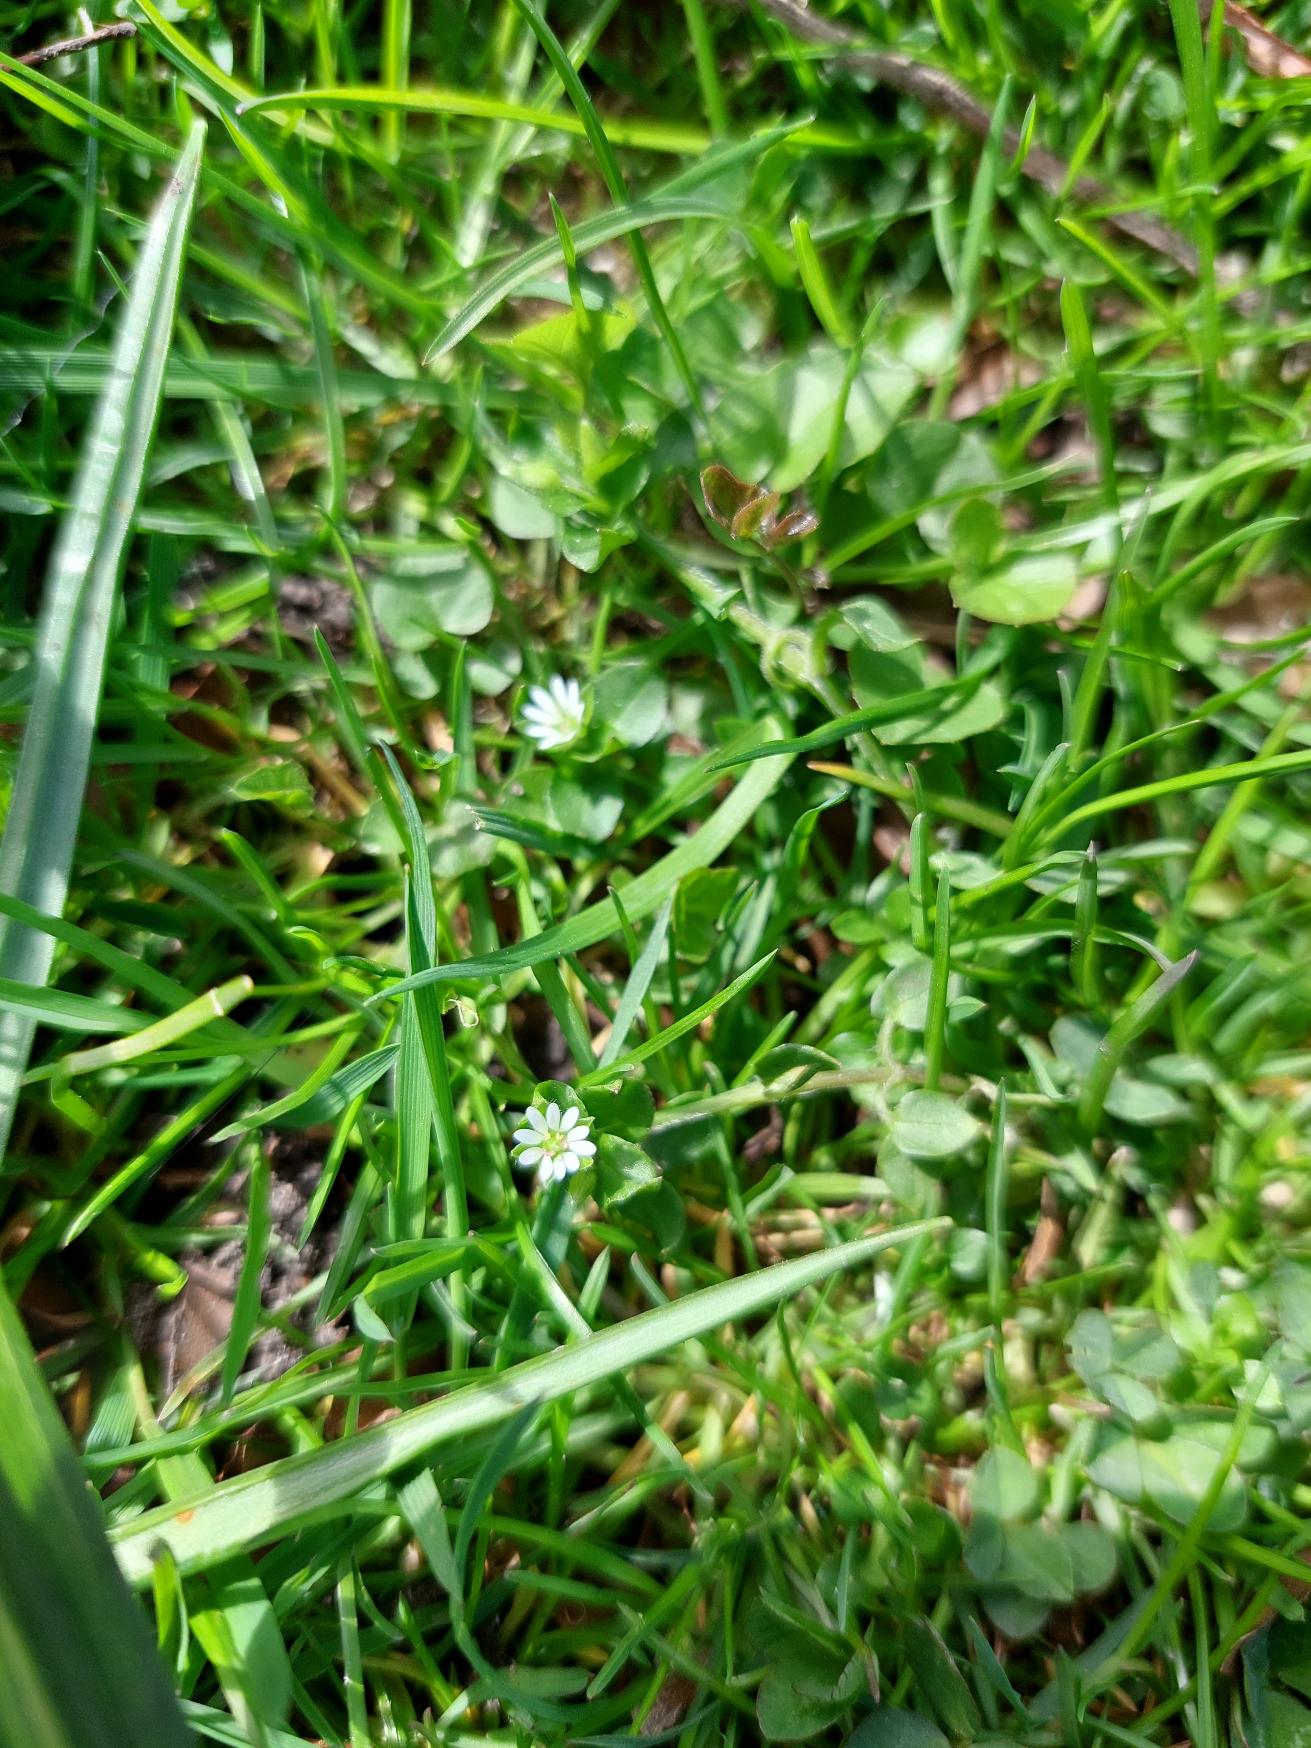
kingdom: Plantae
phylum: Tracheophyta
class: Magnoliopsida
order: Caryophyllales
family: Caryophyllaceae
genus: Stellaria
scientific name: Stellaria media
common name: Almindelig fuglegræs
